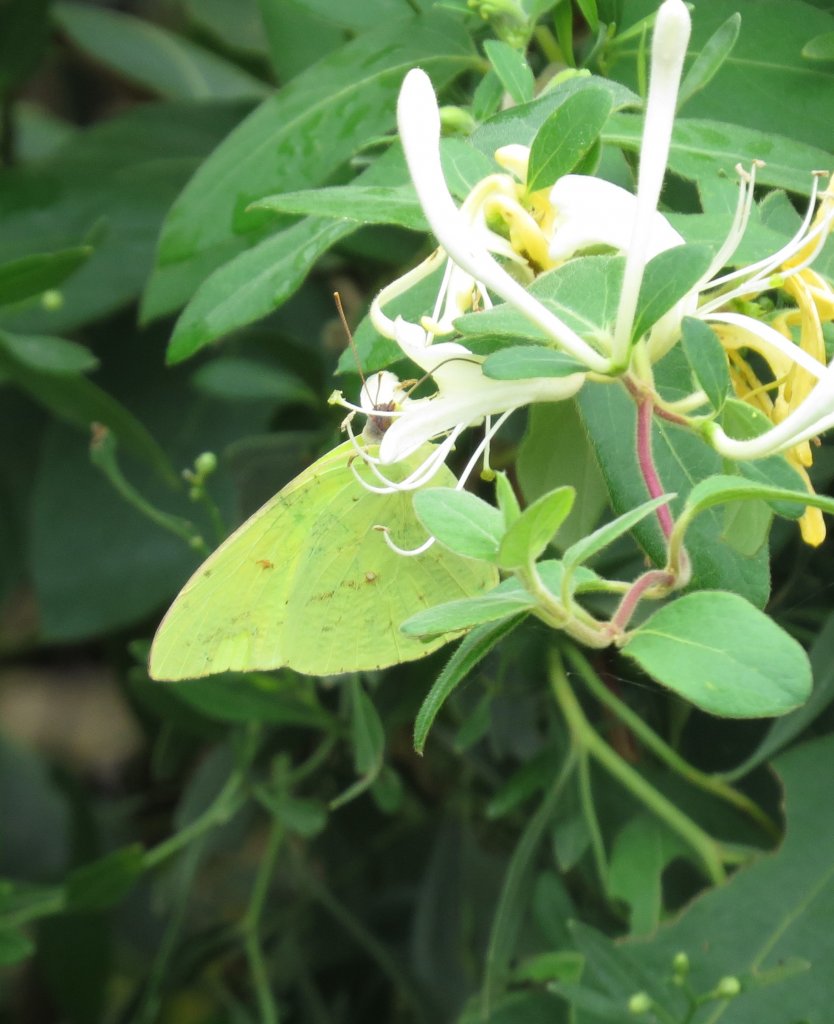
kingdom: Animalia
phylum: Arthropoda
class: Insecta
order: Lepidoptera
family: Pieridae
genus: Phoebis
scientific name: Phoebis sennae
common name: Cloudless Sulphur
